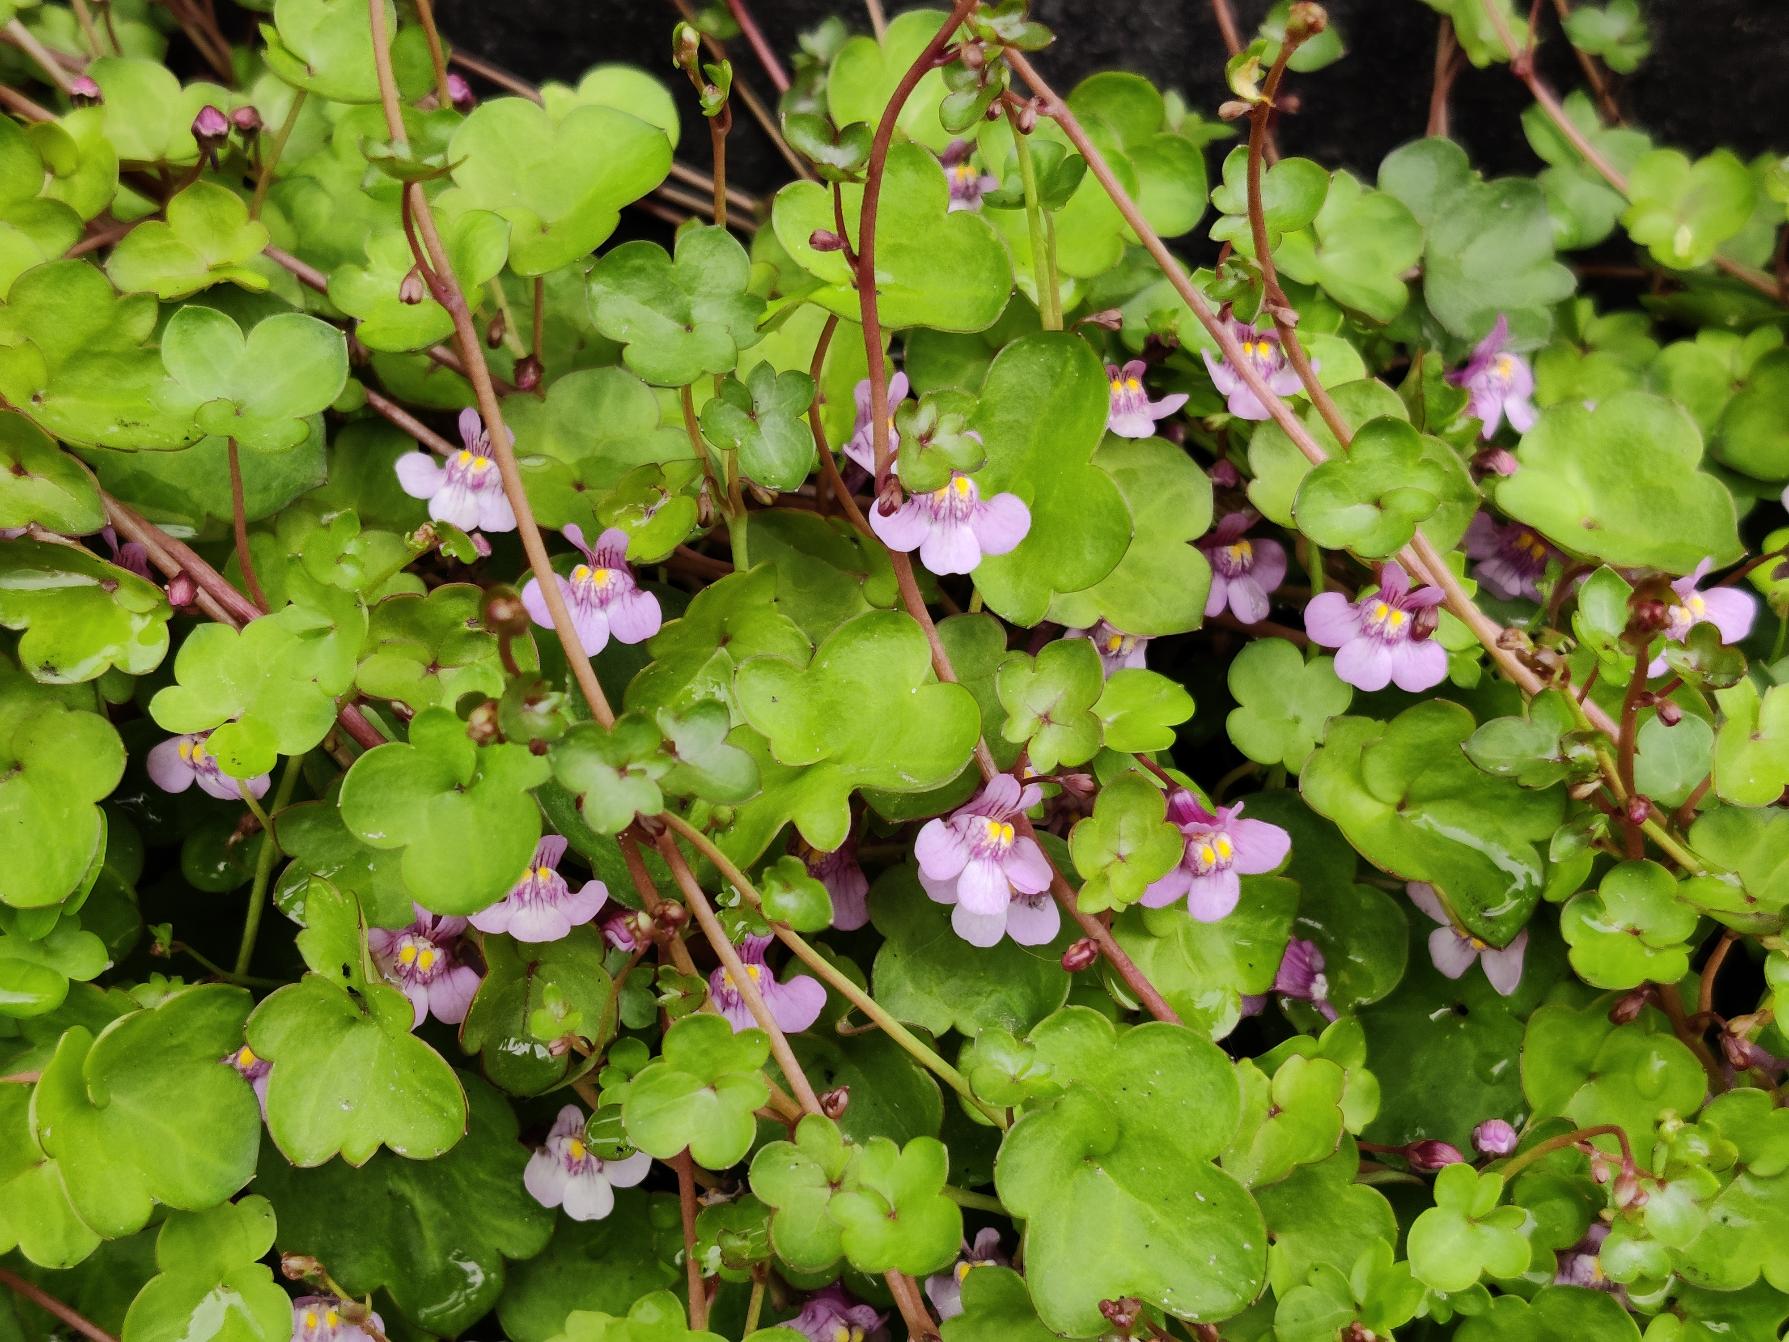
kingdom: Plantae
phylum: Tracheophyta
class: Magnoliopsida
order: Lamiales
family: Plantaginaceae
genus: Cymbalaria
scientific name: Cymbalaria muralis
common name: Vedbend-torskemund
